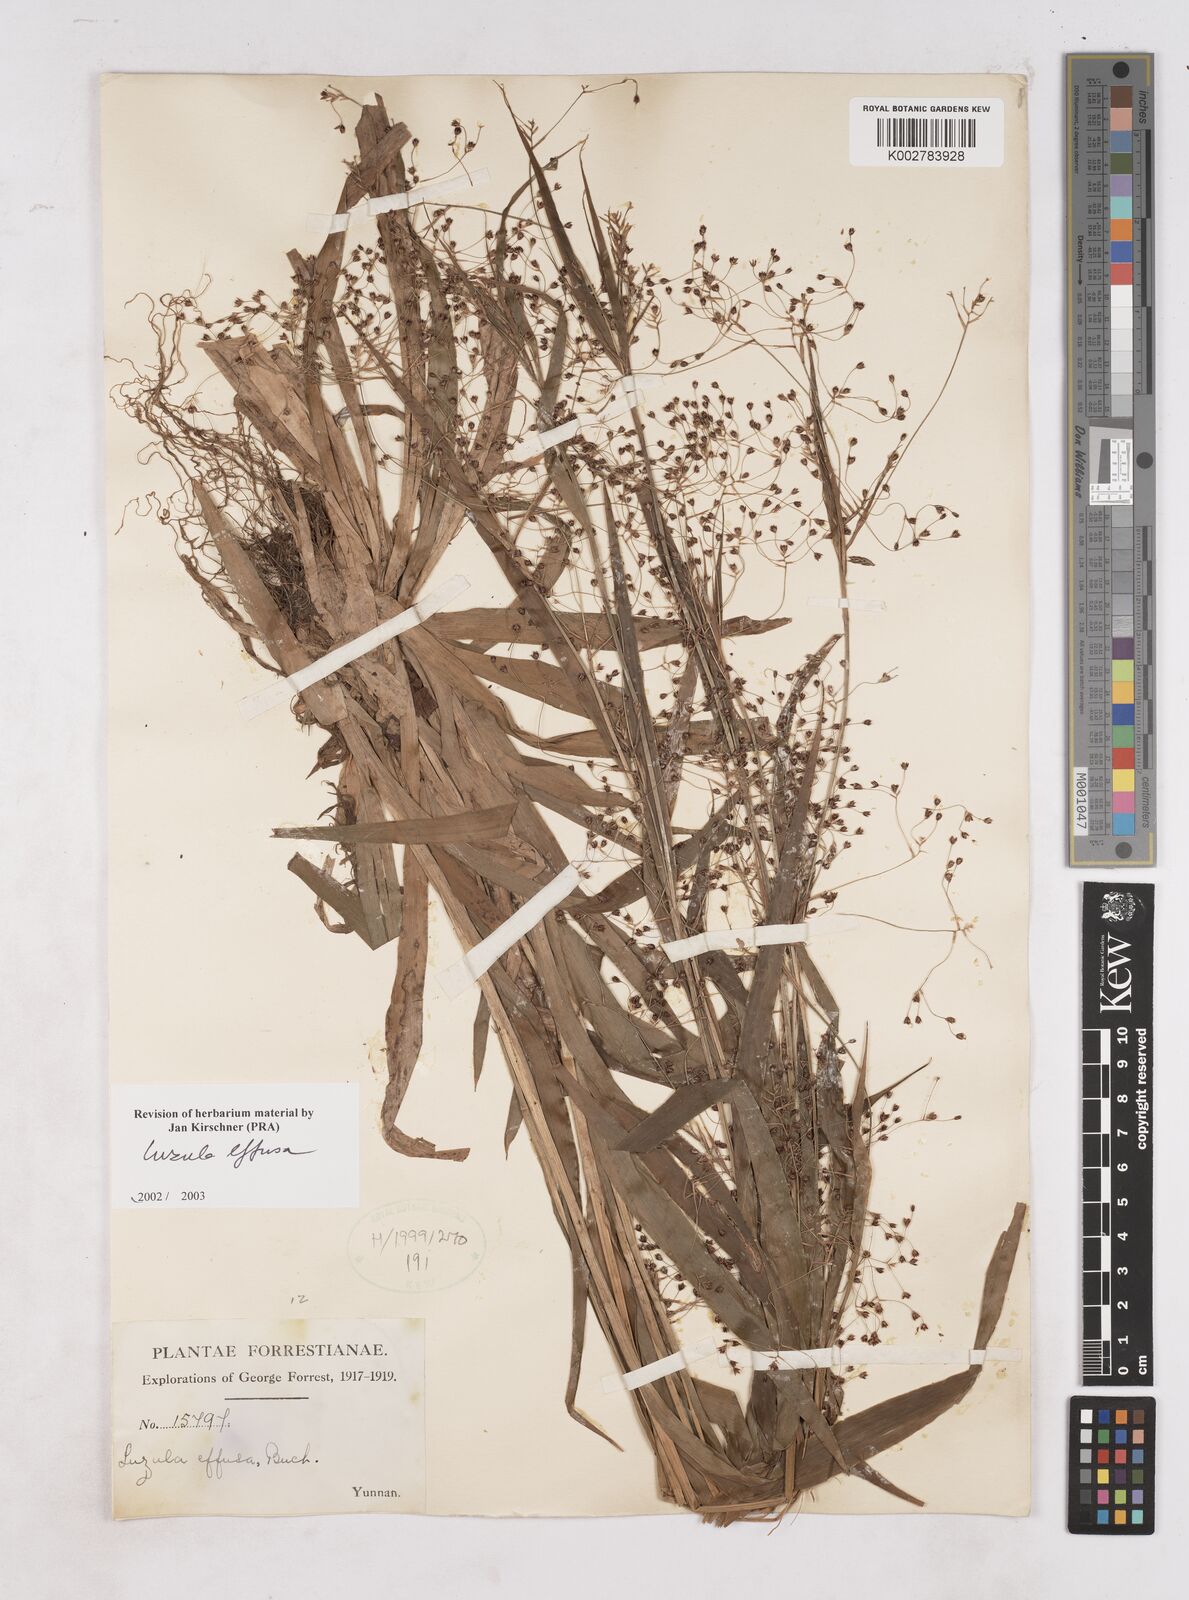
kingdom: Plantae
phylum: Tracheophyta
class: Liliopsida
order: Poales
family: Juncaceae
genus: Luzula
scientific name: Luzula effusa
